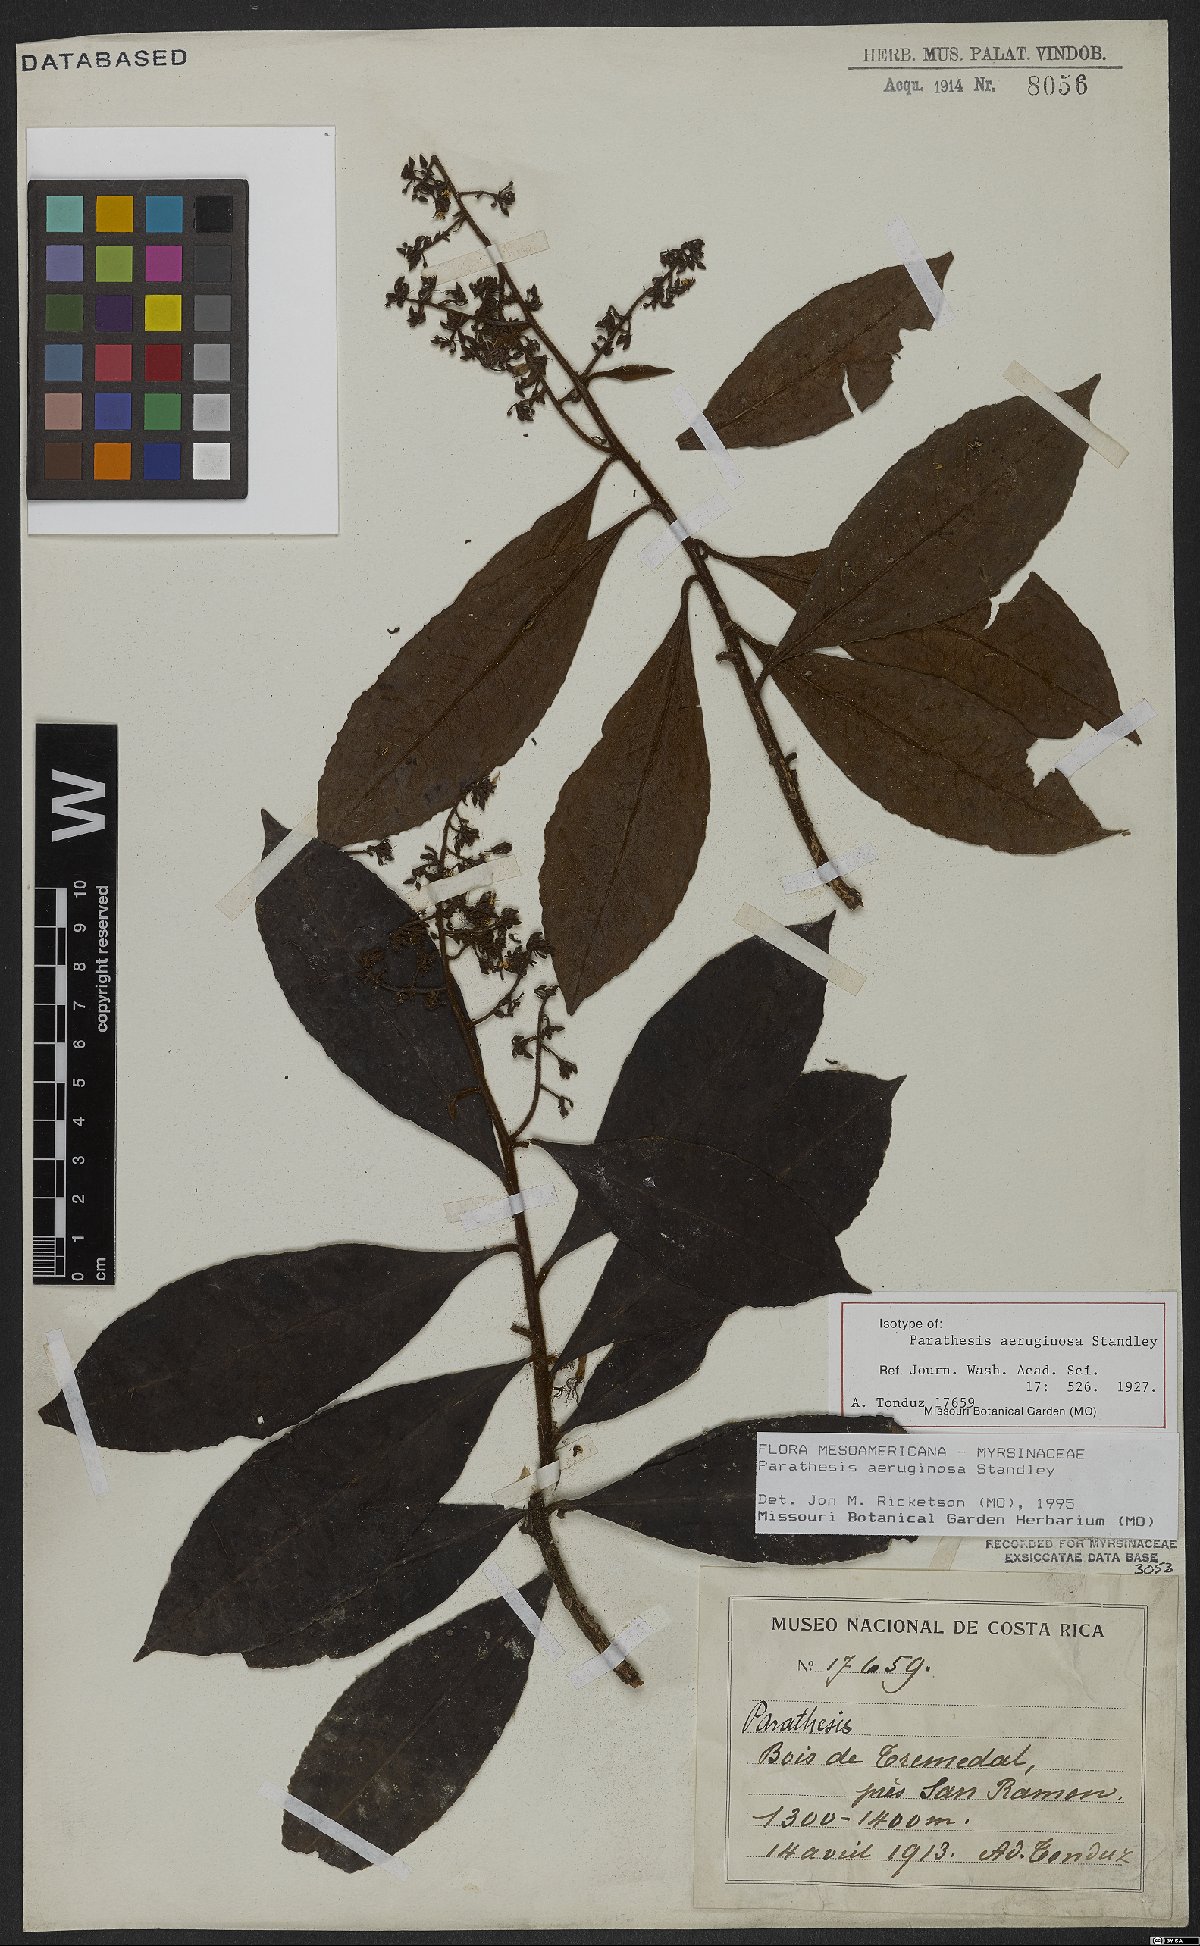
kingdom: Plantae
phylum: Tracheophyta
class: Magnoliopsida
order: Ericales
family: Primulaceae
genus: Parathesis
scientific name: Parathesis aeruginosa
